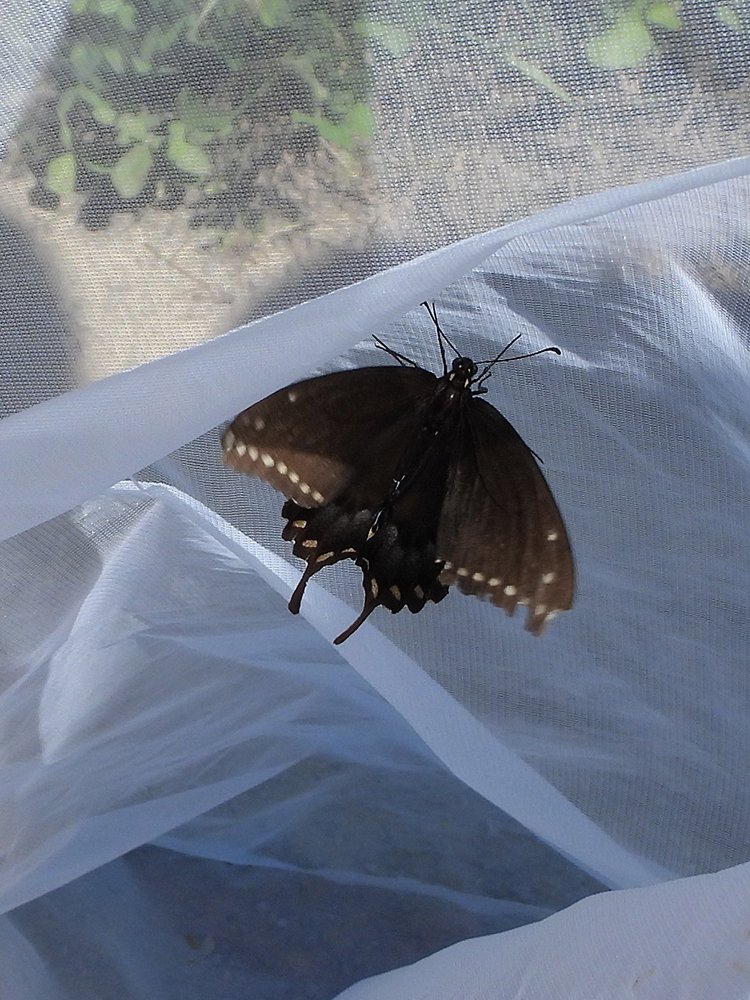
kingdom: Animalia
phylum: Arthropoda
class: Insecta
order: Lepidoptera
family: Papilionidae
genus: Papilio
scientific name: Papilio polyxenes
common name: Black Swallowtail
